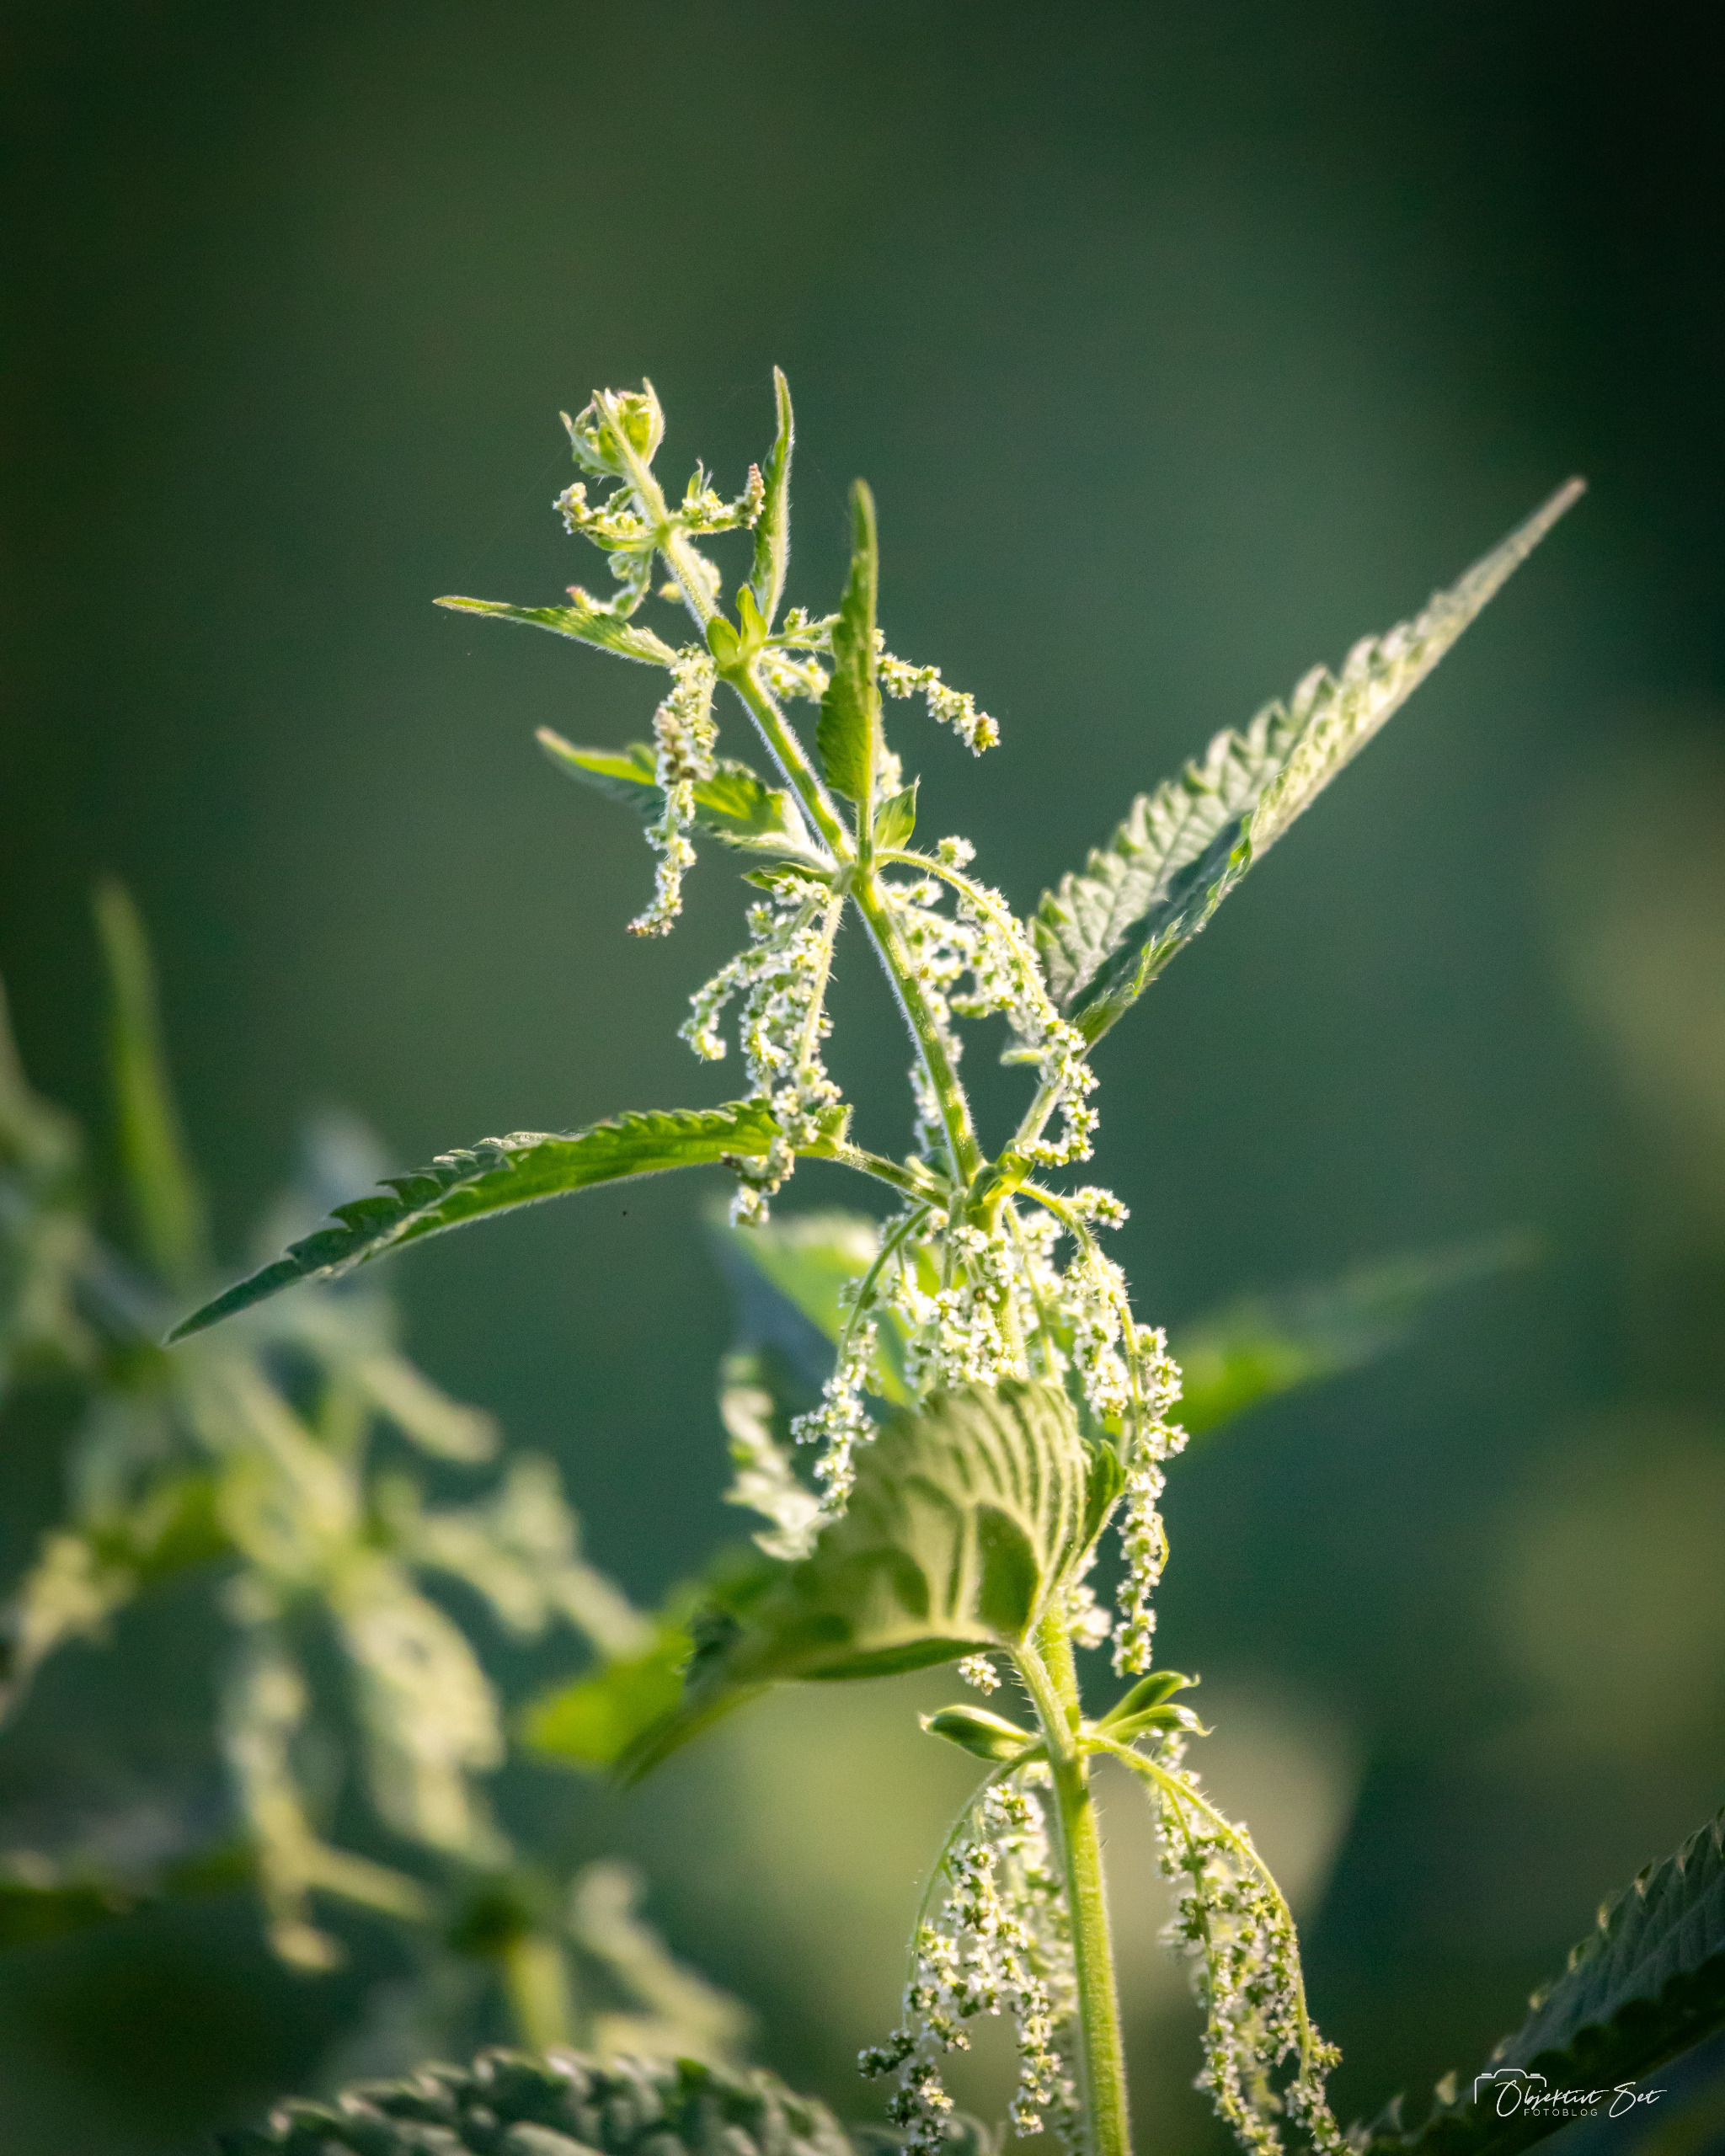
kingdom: Plantae
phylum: Tracheophyta
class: Magnoliopsida
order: Rosales
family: Urticaceae
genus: Urtica
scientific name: Urtica dioica
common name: Stor nælde
